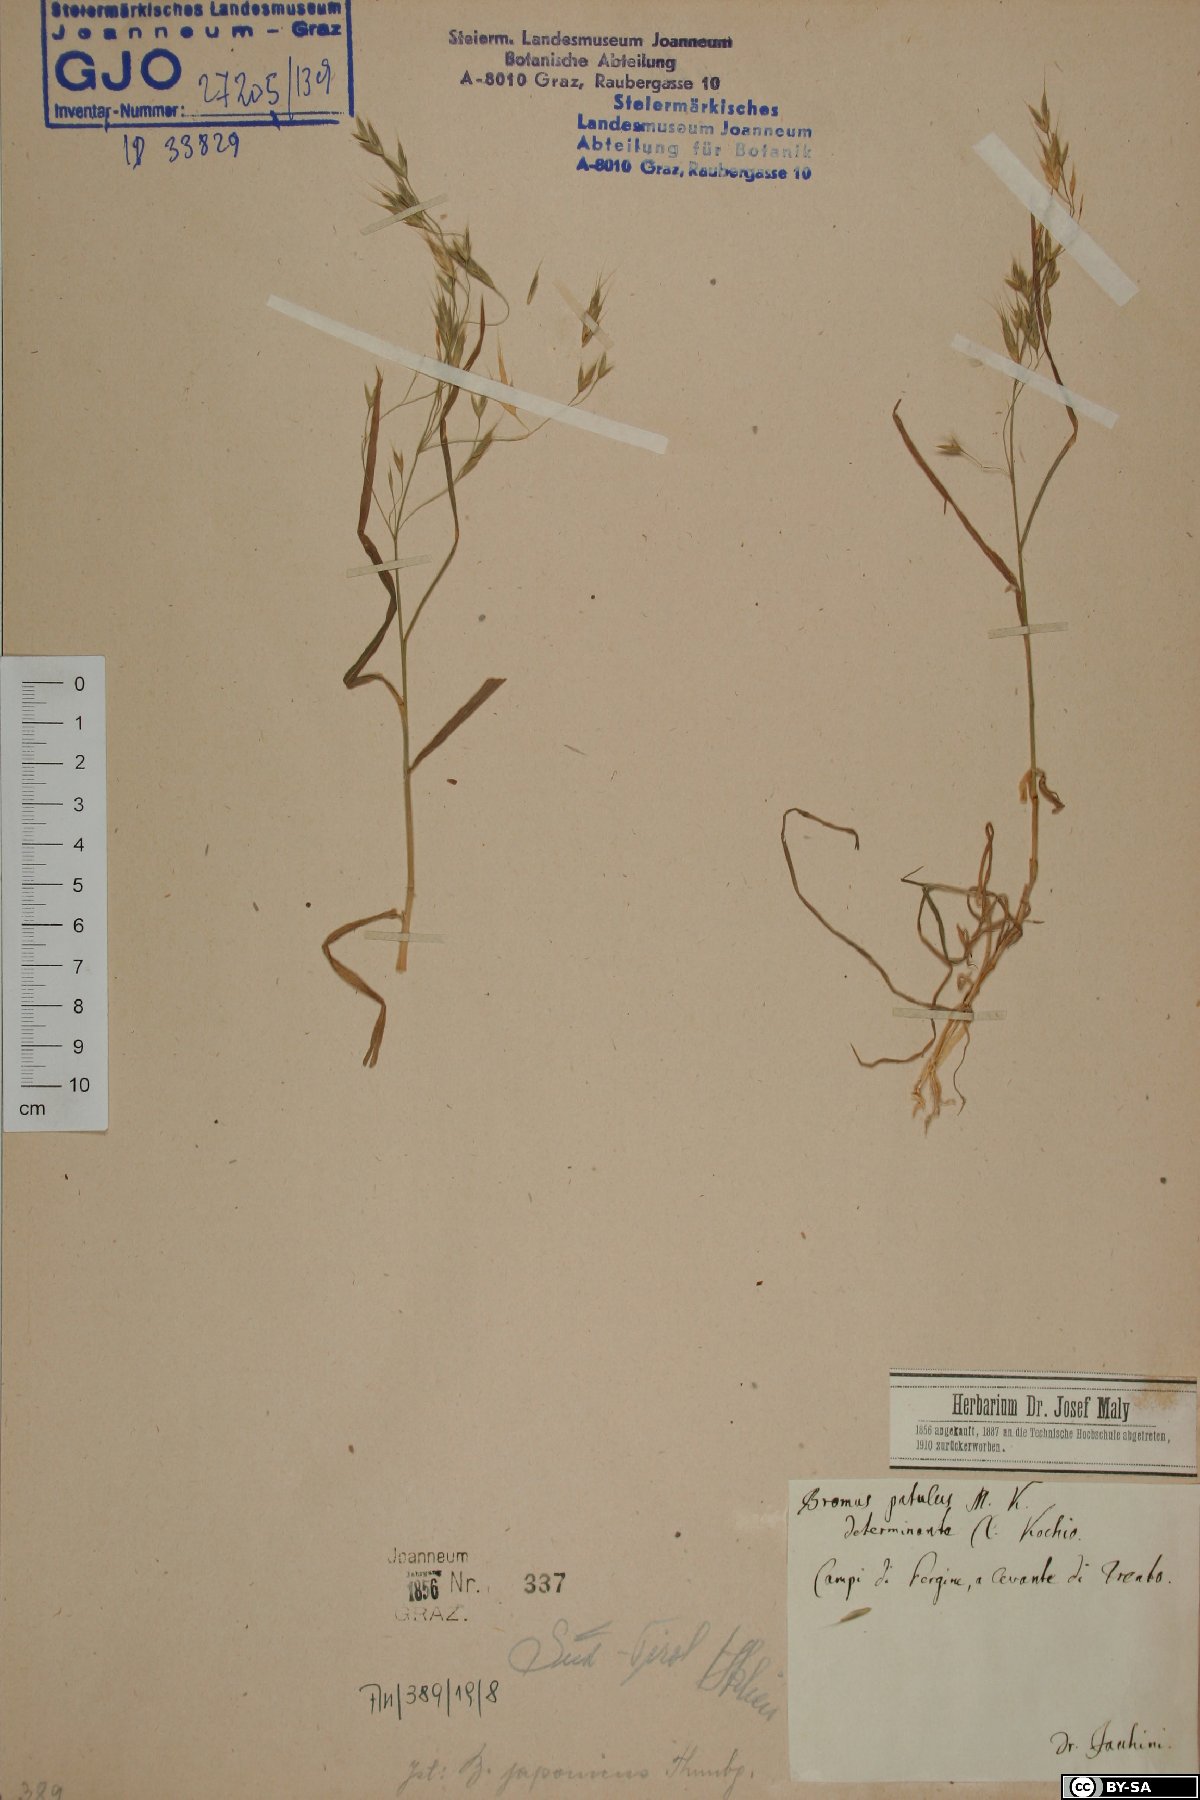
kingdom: Plantae
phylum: Tracheophyta
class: Liliopsida
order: Poales
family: Poaceae
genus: Bromus
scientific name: Bromus japonicus
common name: Japanese brome
